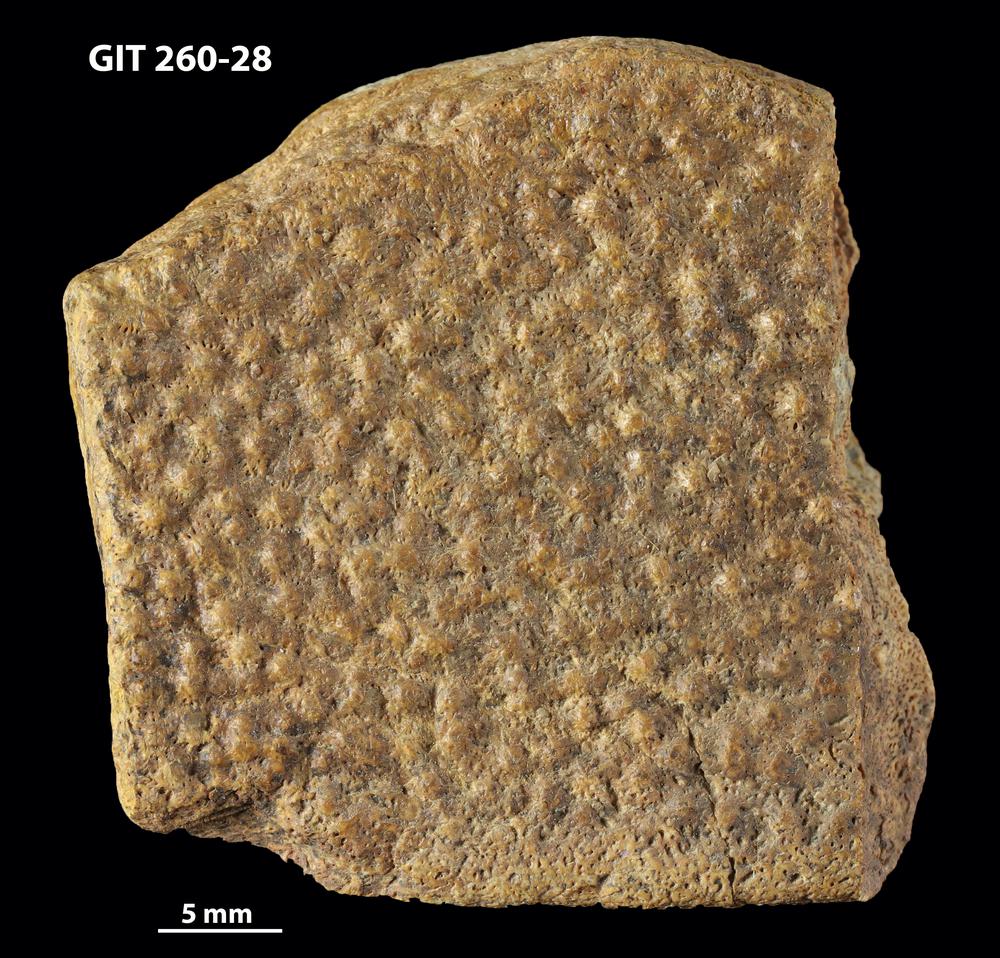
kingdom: Animalia
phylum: Chordata
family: Homostiidae
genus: Homostius
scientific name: Homostius
